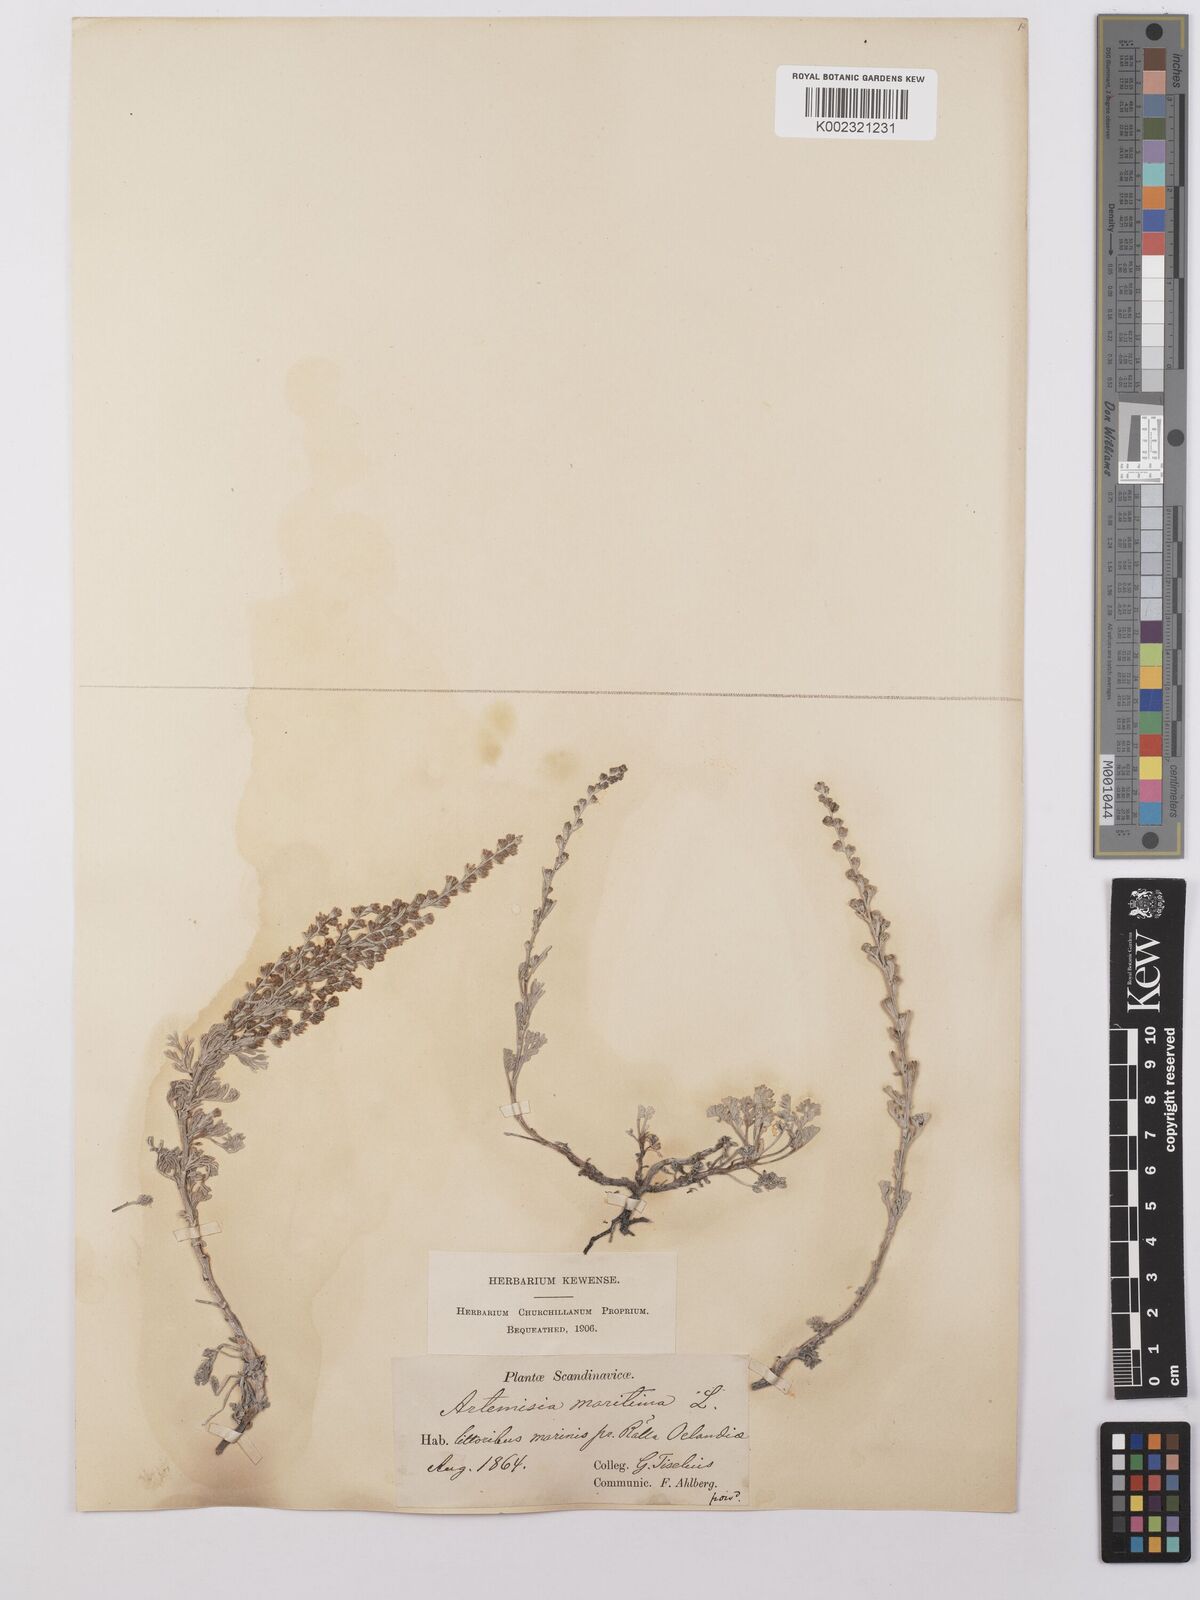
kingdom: Plantae
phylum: Tracheophyta
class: Magnoliopsida
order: Asterales
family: Asteraceae
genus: Artemisia
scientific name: Artemisia maritima
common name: Wormseed
